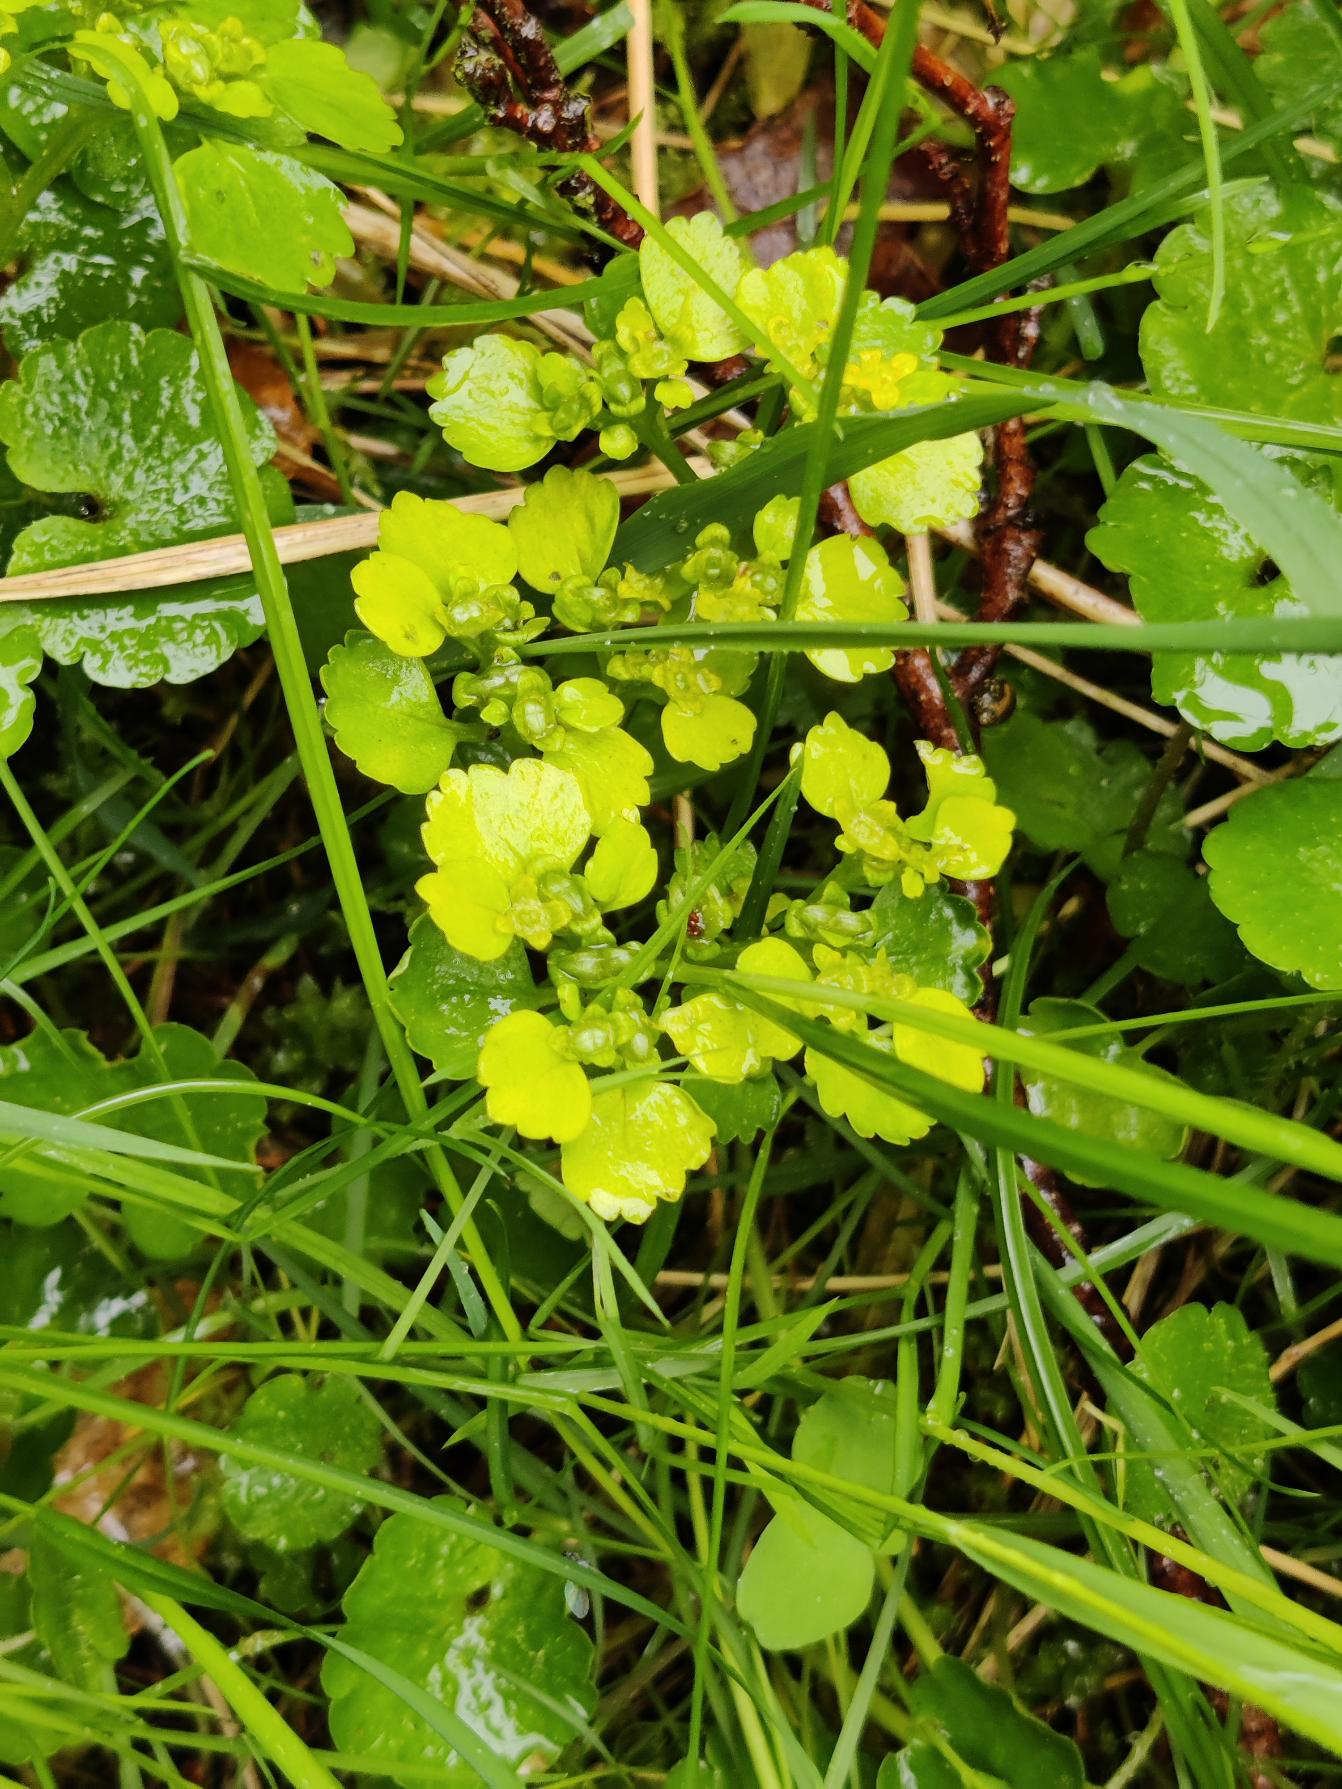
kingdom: Plantae
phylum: Tracheophyta
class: Magnoliopsida
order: Saxifragales
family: Saxifragaceae
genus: Chrysosplenium
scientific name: Chrysosplenium alternifolium
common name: Almindelig milturt
